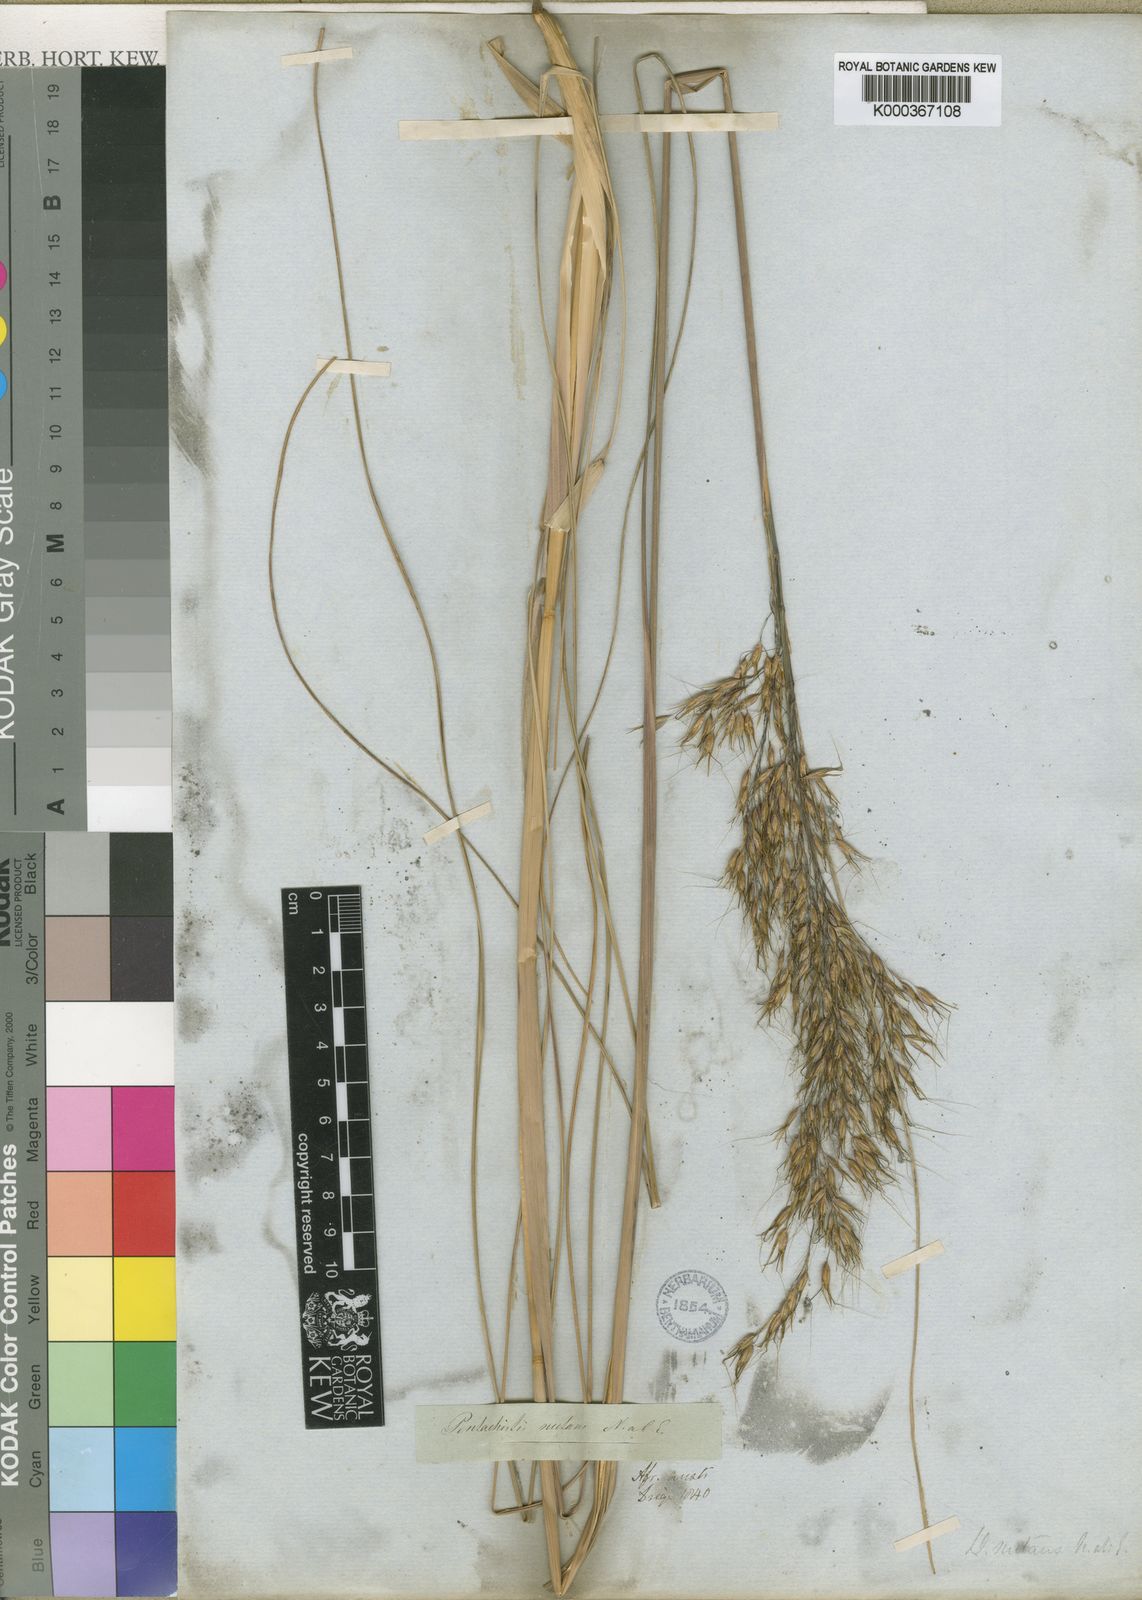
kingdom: Plantae
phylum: Tracheophyta
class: Liliopsida
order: Poales
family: Poaceae
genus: Pentameris
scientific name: Pentameris tortuosa
